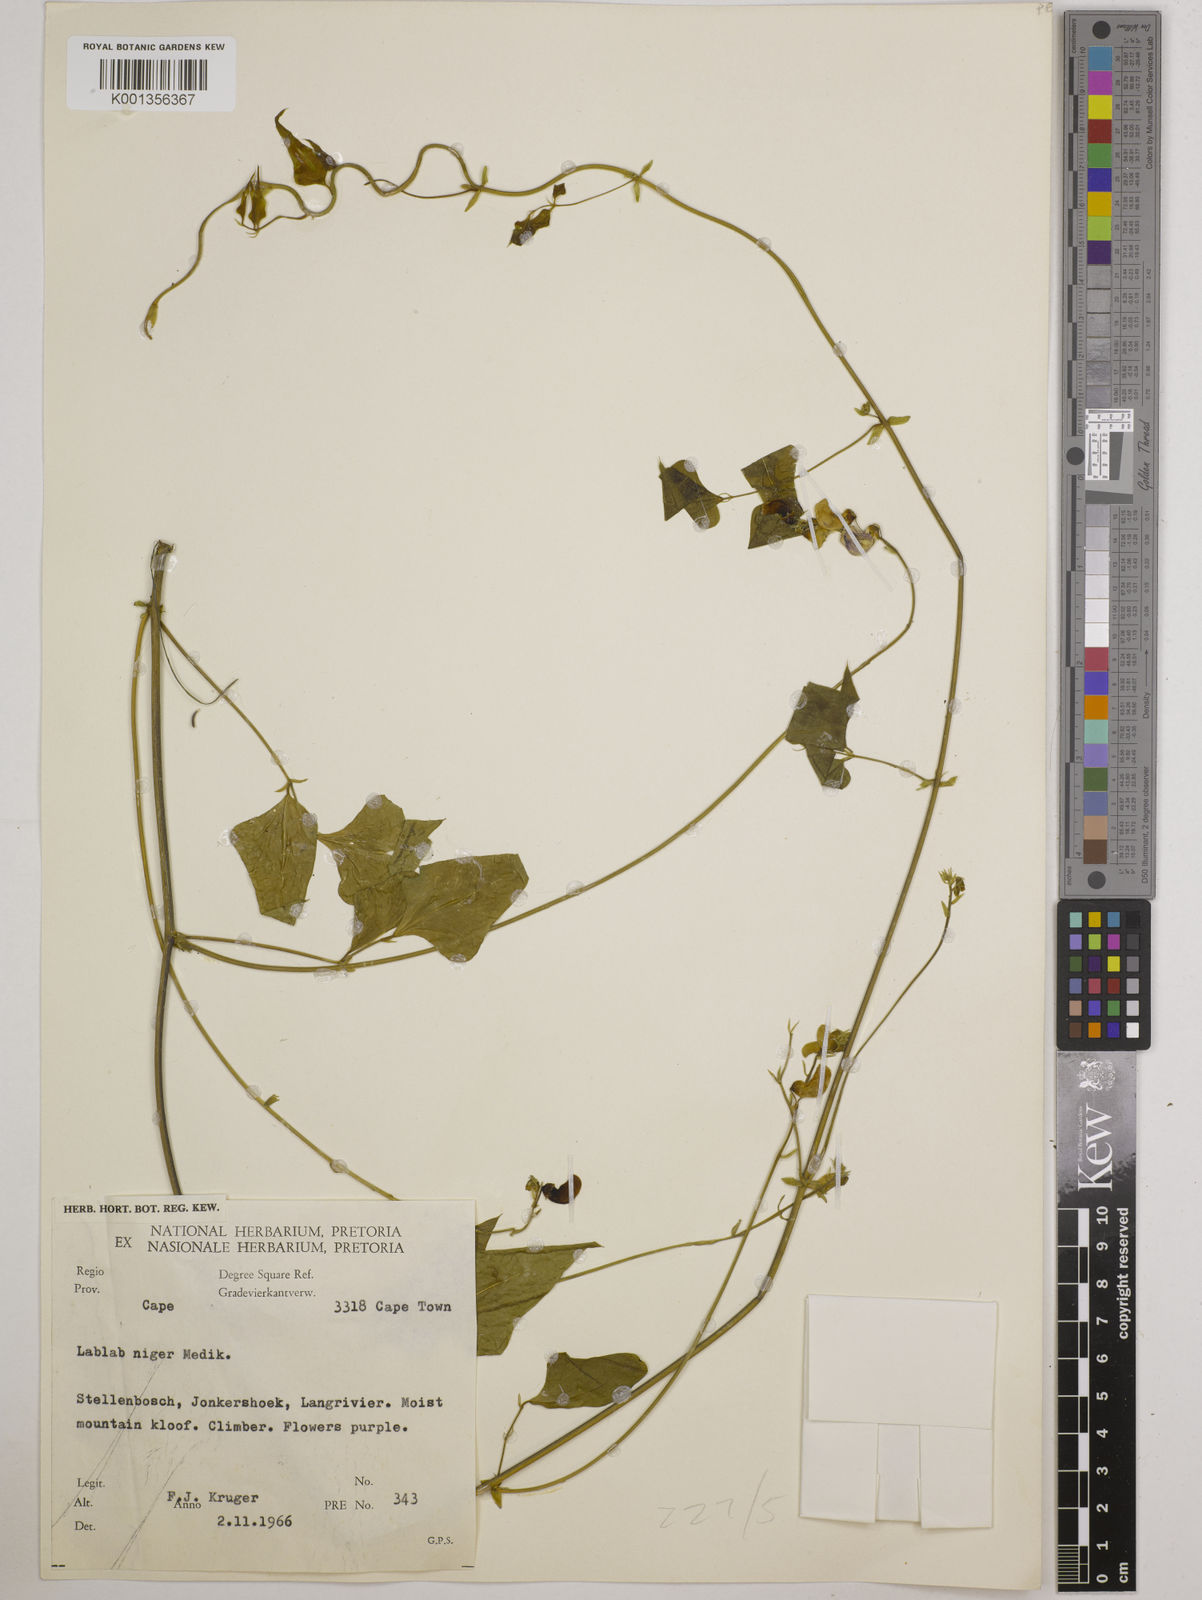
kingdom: Plantae
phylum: Tracheophyta
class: Magnoliopsida
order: Fabales
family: Fabaceae
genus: Lablab
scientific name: Lablab purpureus
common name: Lablab-bean
